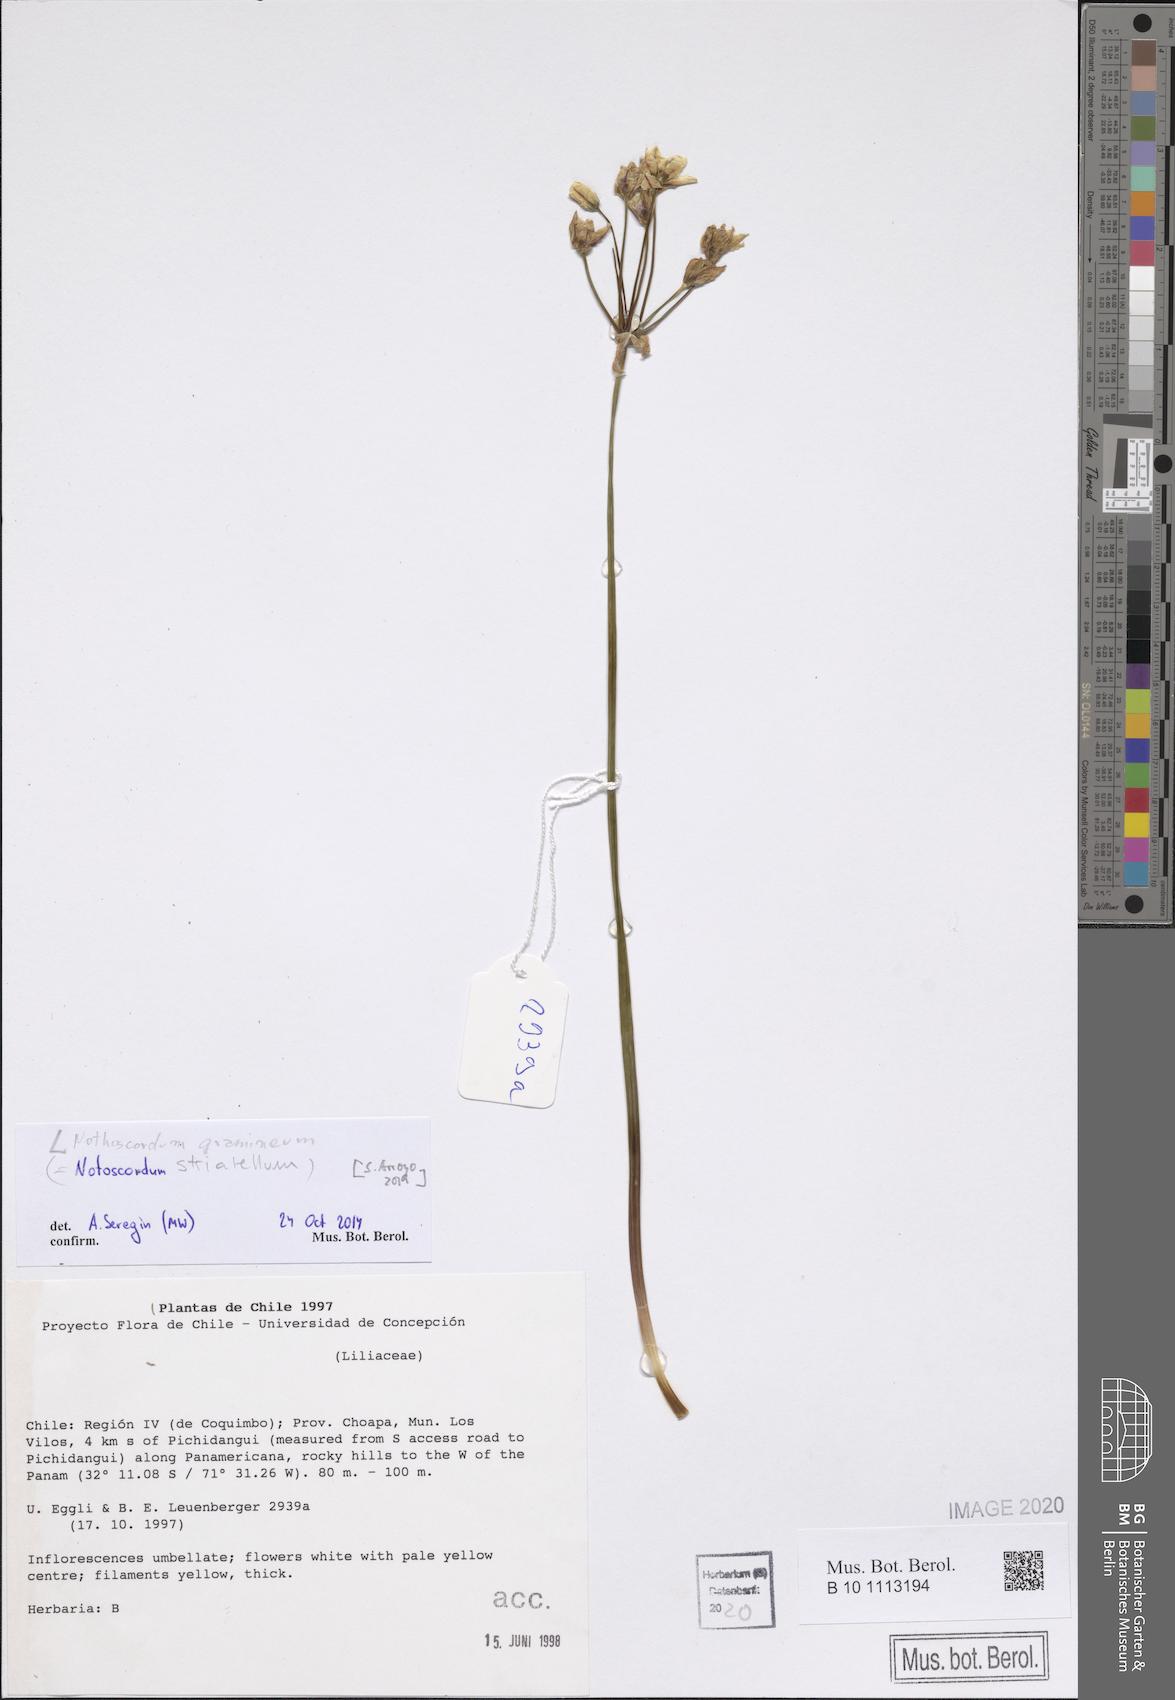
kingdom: Plantae
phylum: Tracheophyta
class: Liliopsida
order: Asparagales
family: Amaryllidaceae
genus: Nothoscordum
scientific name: Nothoscordum bivalve
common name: Crow-poison
